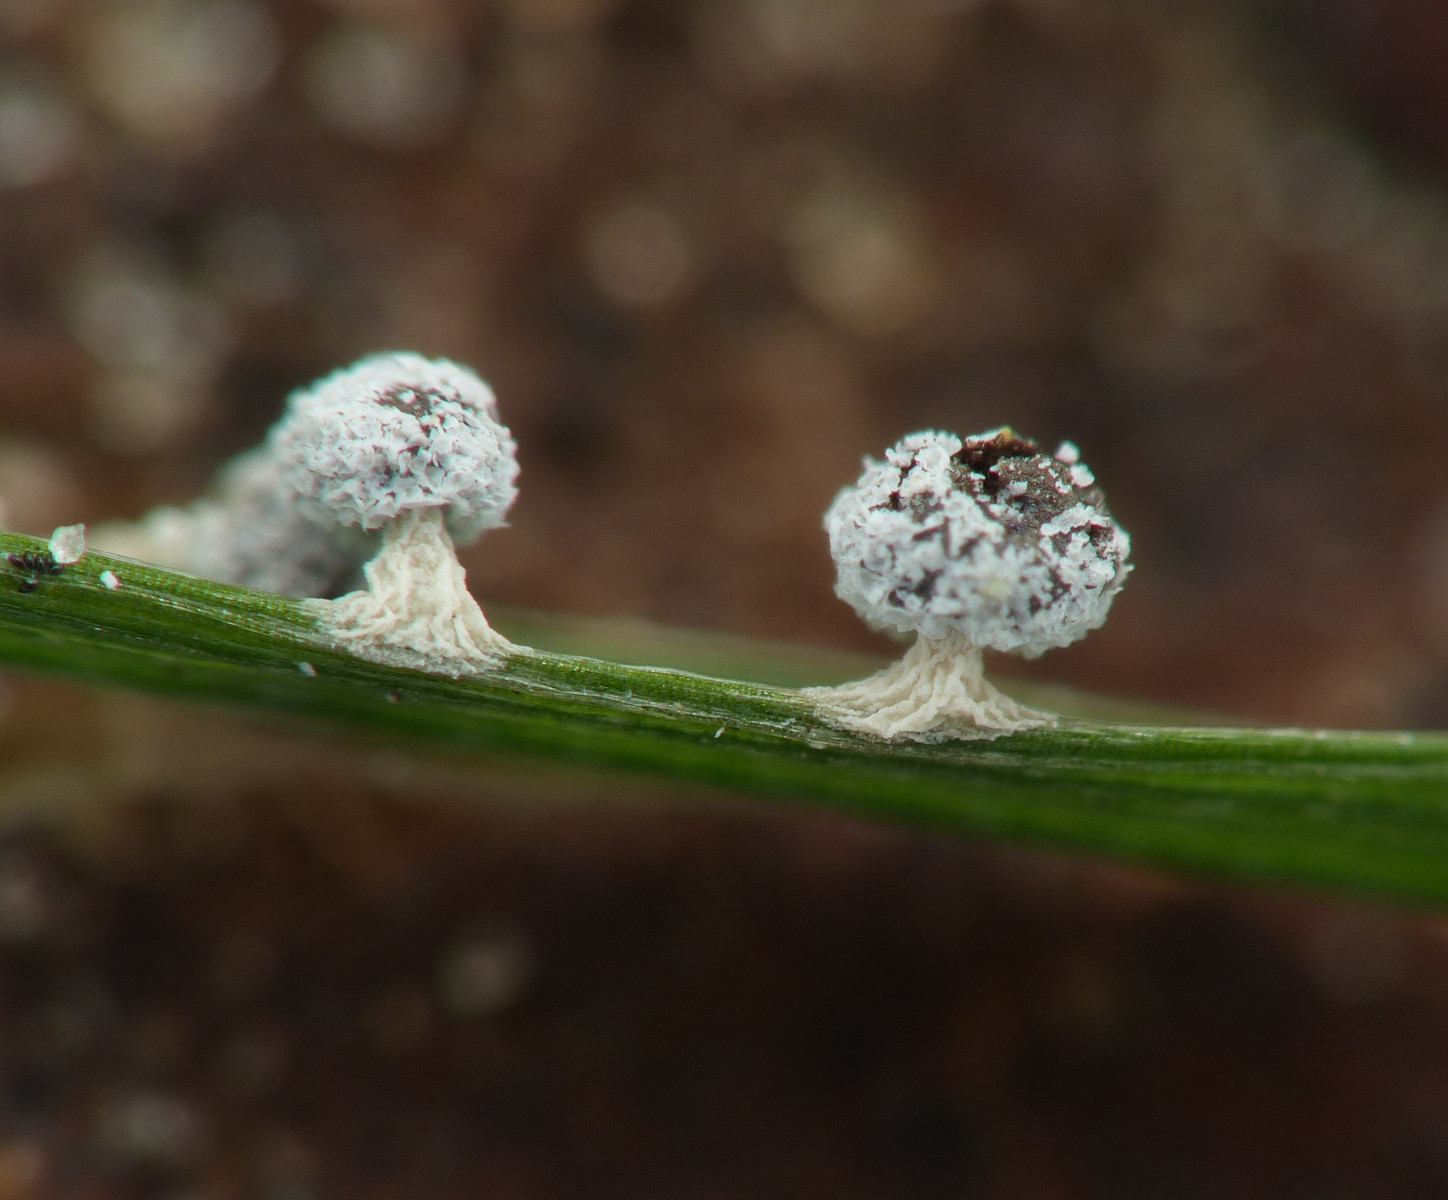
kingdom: Protozoa
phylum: Mycetozoa
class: Myxomycetes
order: Physarales
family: Didymiaceae
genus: Didymium
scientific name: Didymium squamulosum
